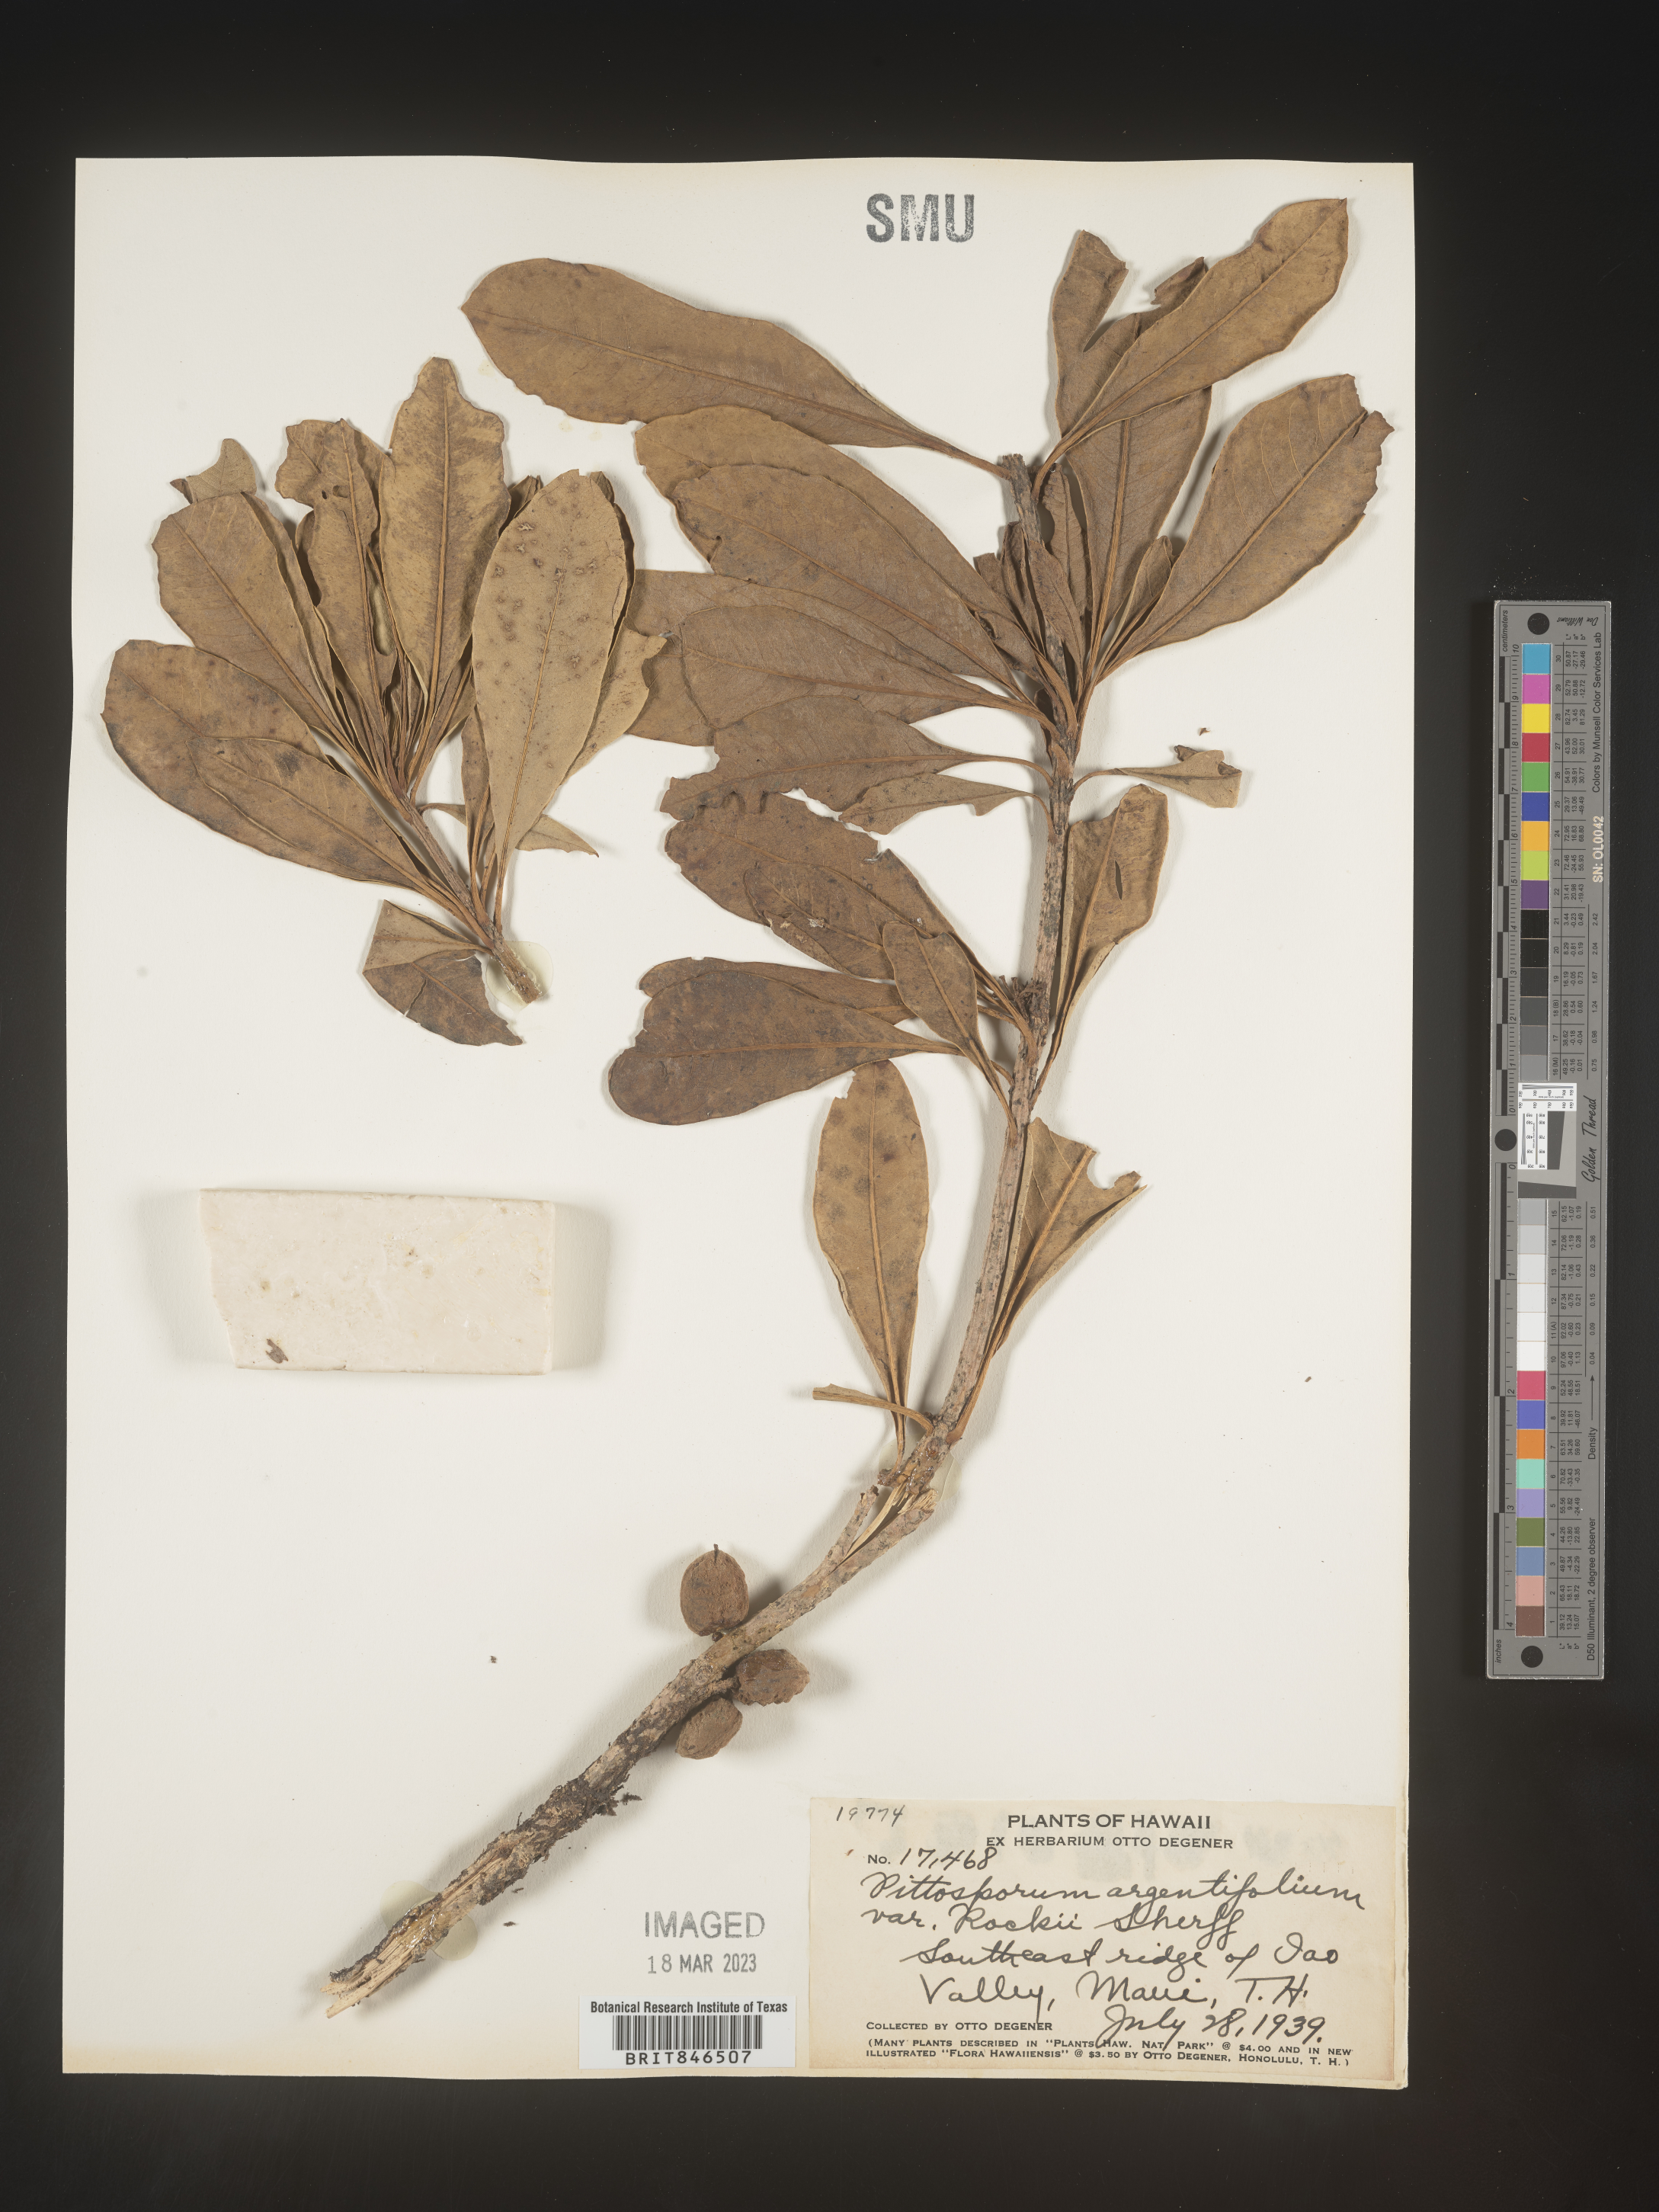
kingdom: Plantae
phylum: Tracheophyta
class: Magnoliopsida
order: Apiales
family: Pittosporaceae
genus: Pittosporum
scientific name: Pittosporum
